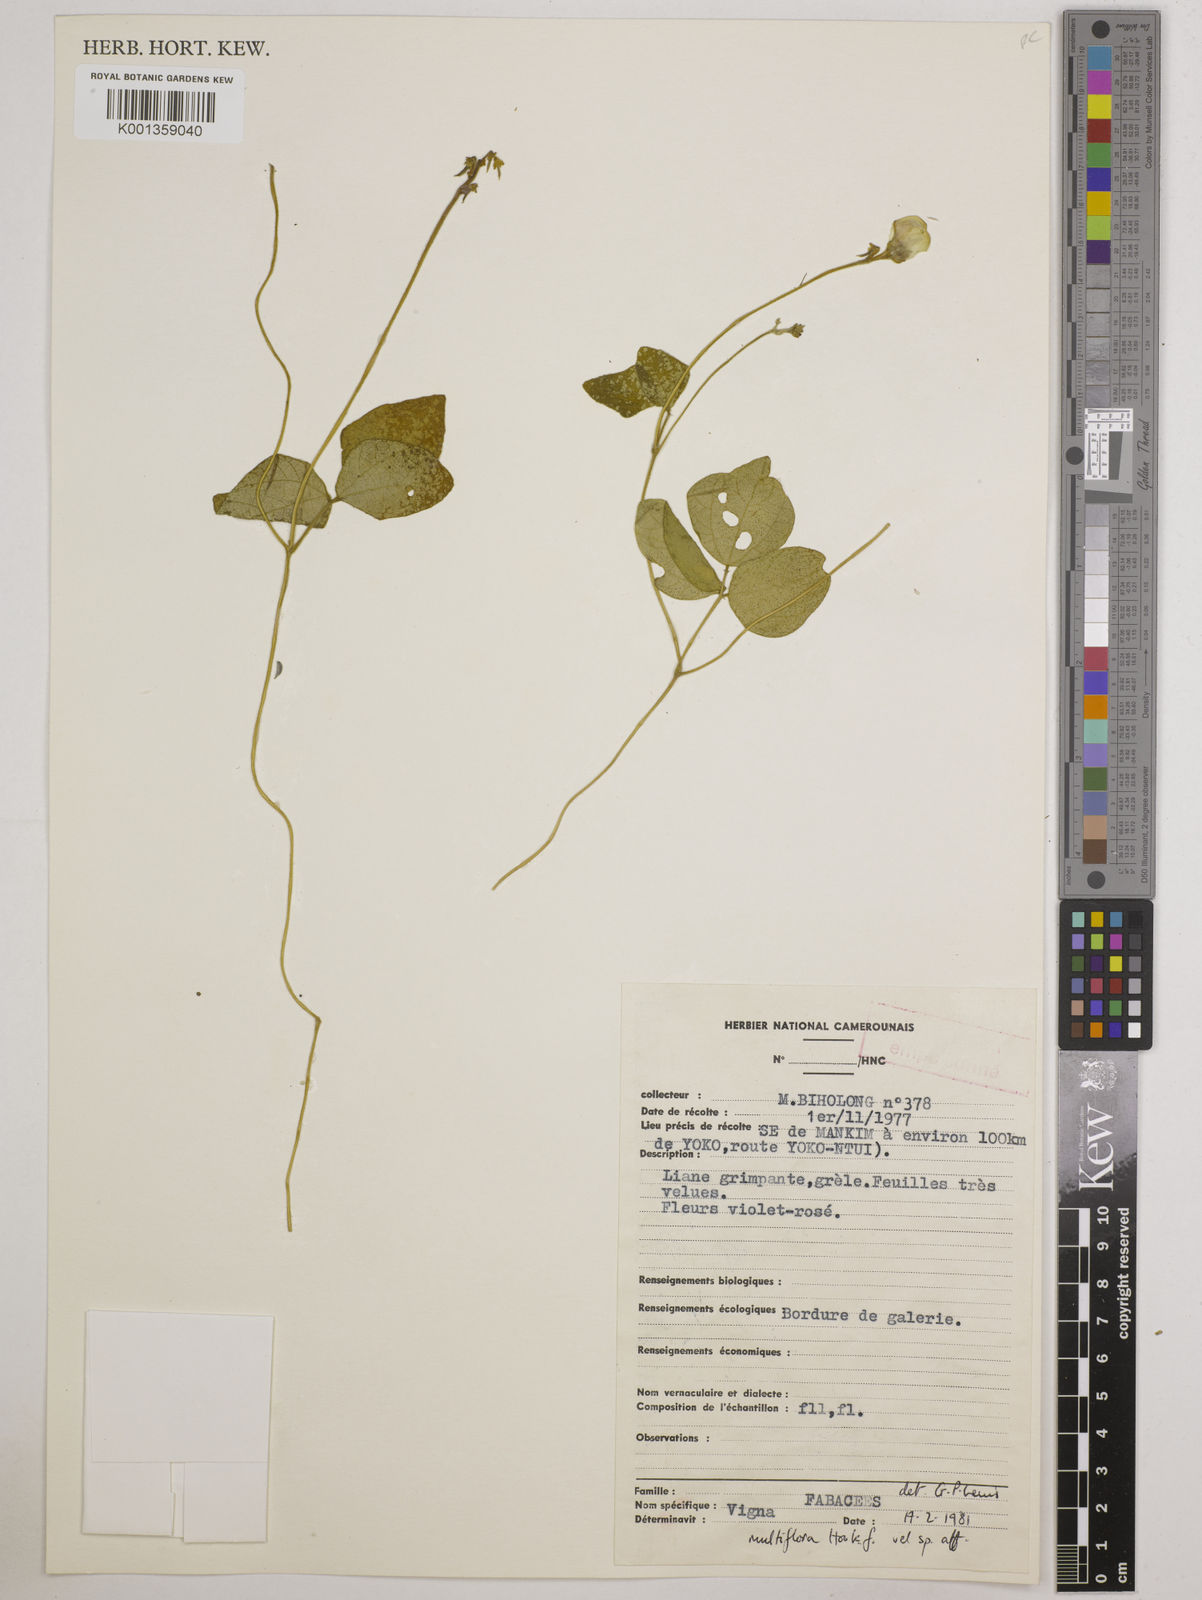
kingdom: Plantae
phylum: Tracheophyta
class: Magnoliopsida
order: Fabales
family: Fabaceae
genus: Vigna
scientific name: Vigna gracilis
